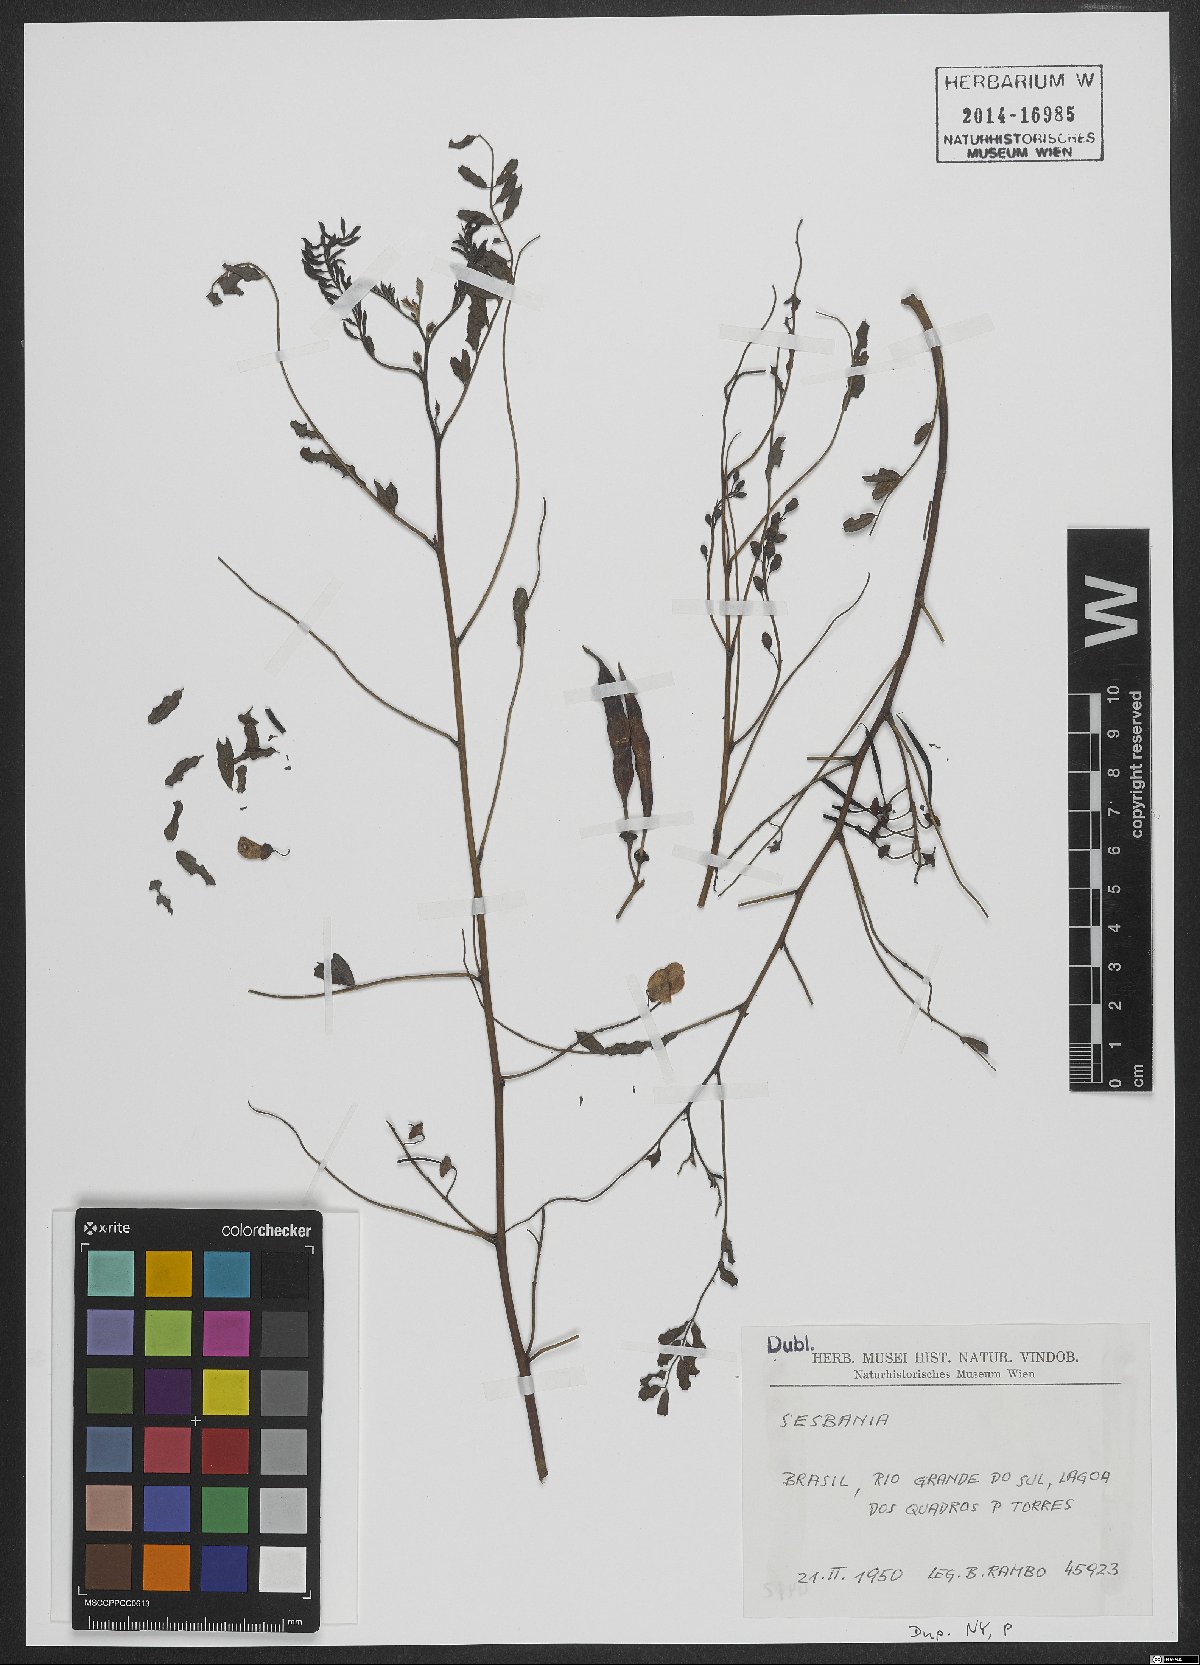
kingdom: Plantae
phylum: Tracheophyta
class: Magnoliopsida
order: Fabales
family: Fabaceae
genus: Sesbania
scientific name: Sesbania drummondii
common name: Poison-bean
